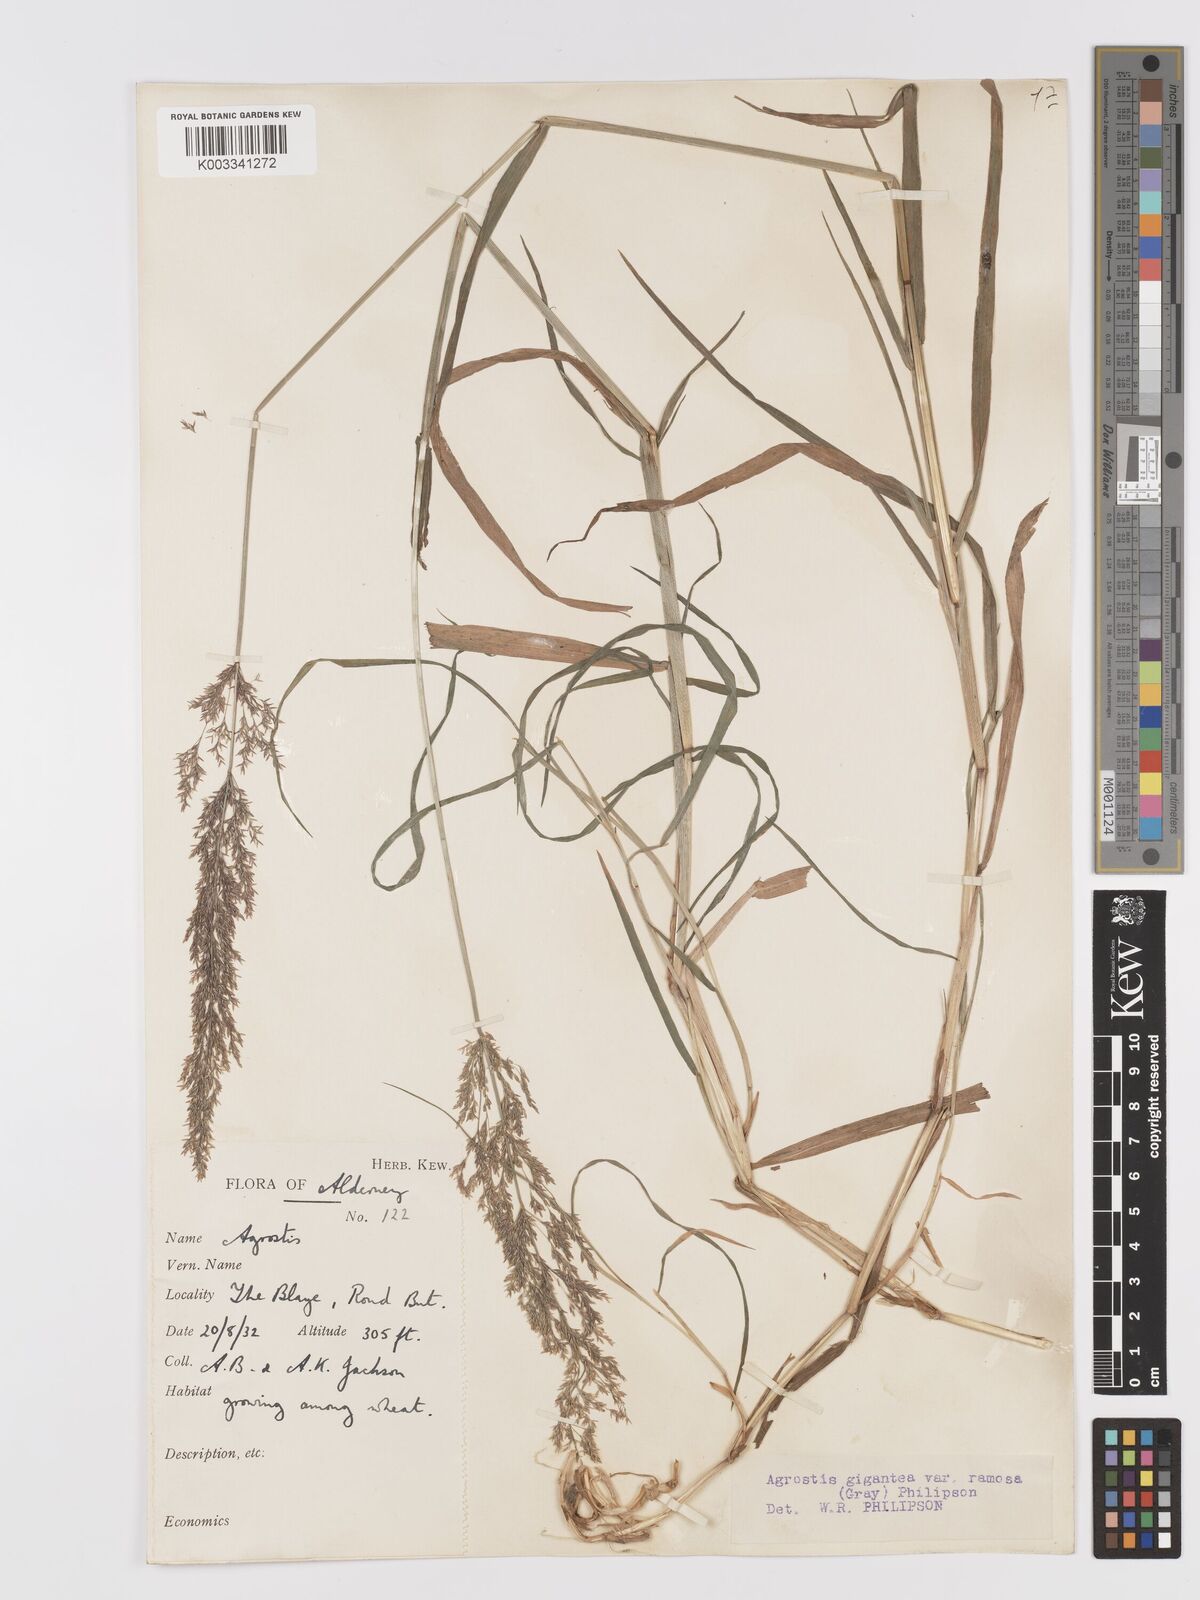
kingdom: Plantae
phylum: Tracheophyta
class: Liliopsida
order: Poales
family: Poaceae
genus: Agrostis
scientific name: Agrostis gigantea
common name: Black bent
